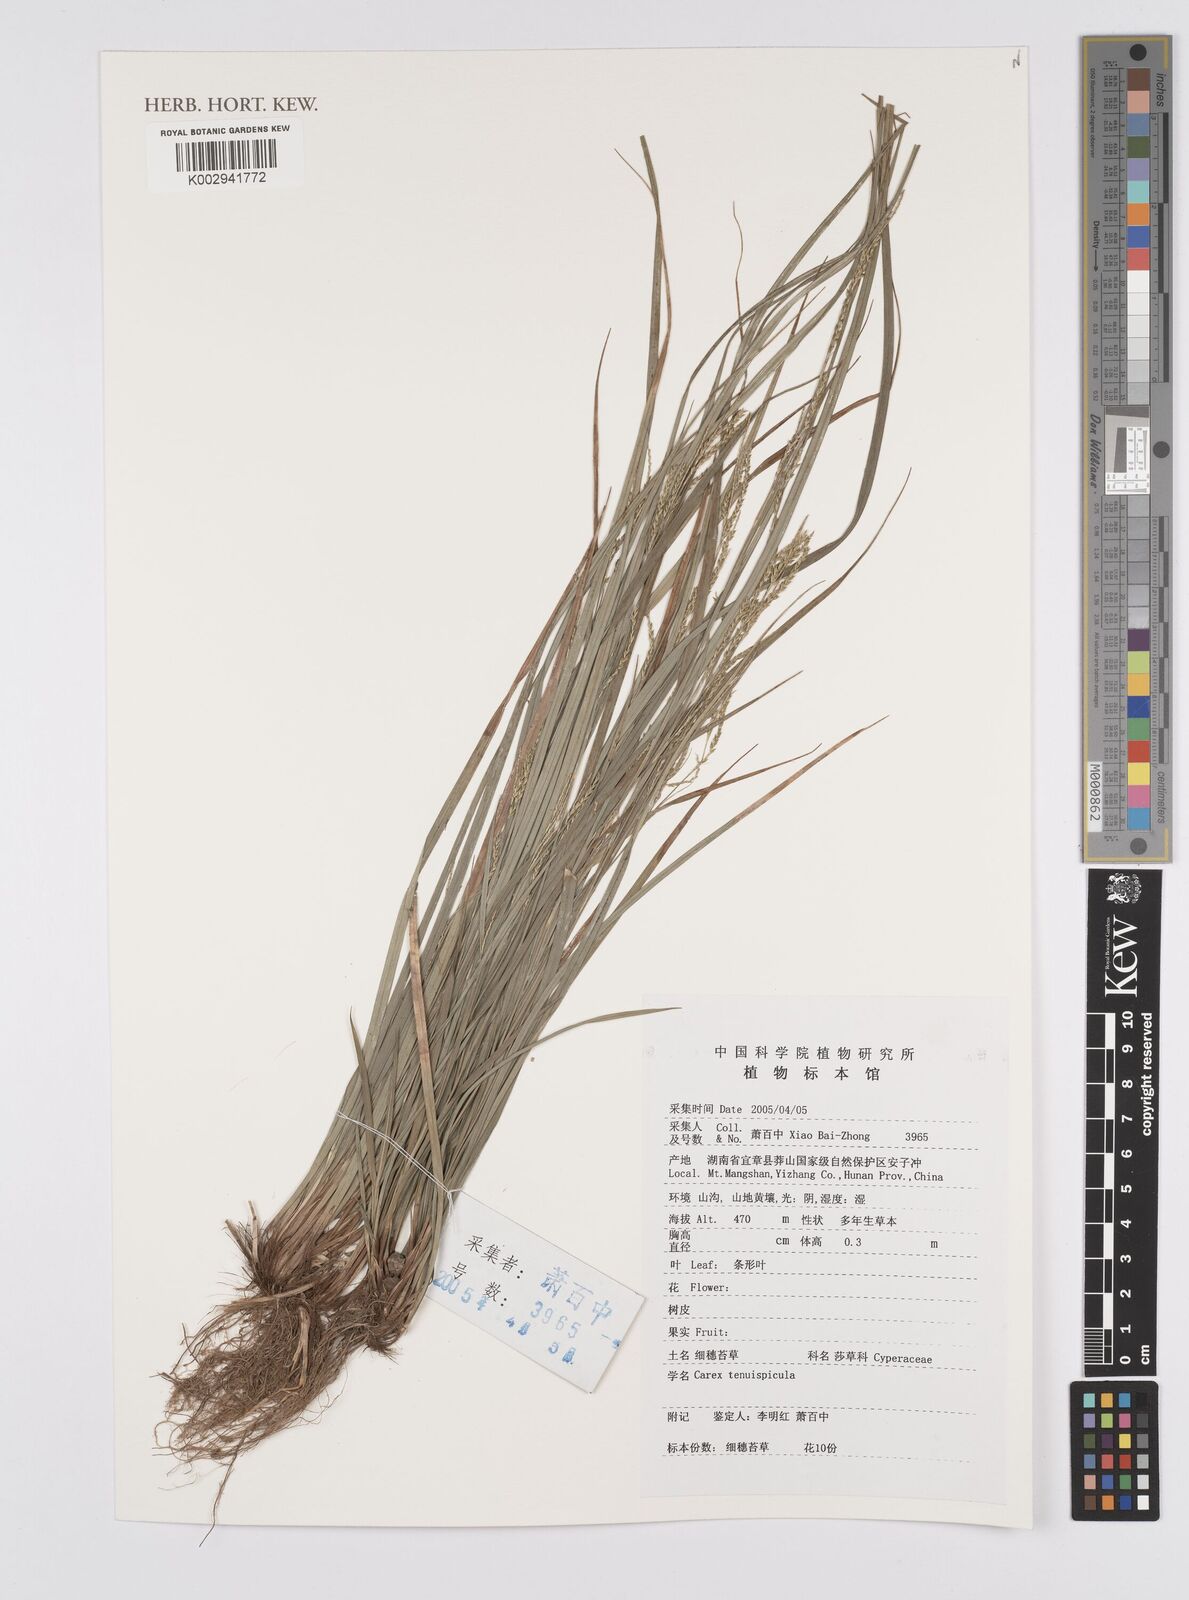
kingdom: Plantae
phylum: Tracheophyta
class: Liliopsida
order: Poales
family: Cyperaceae
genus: Carex
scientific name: Carex brunnea
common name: Greater brown sedge
